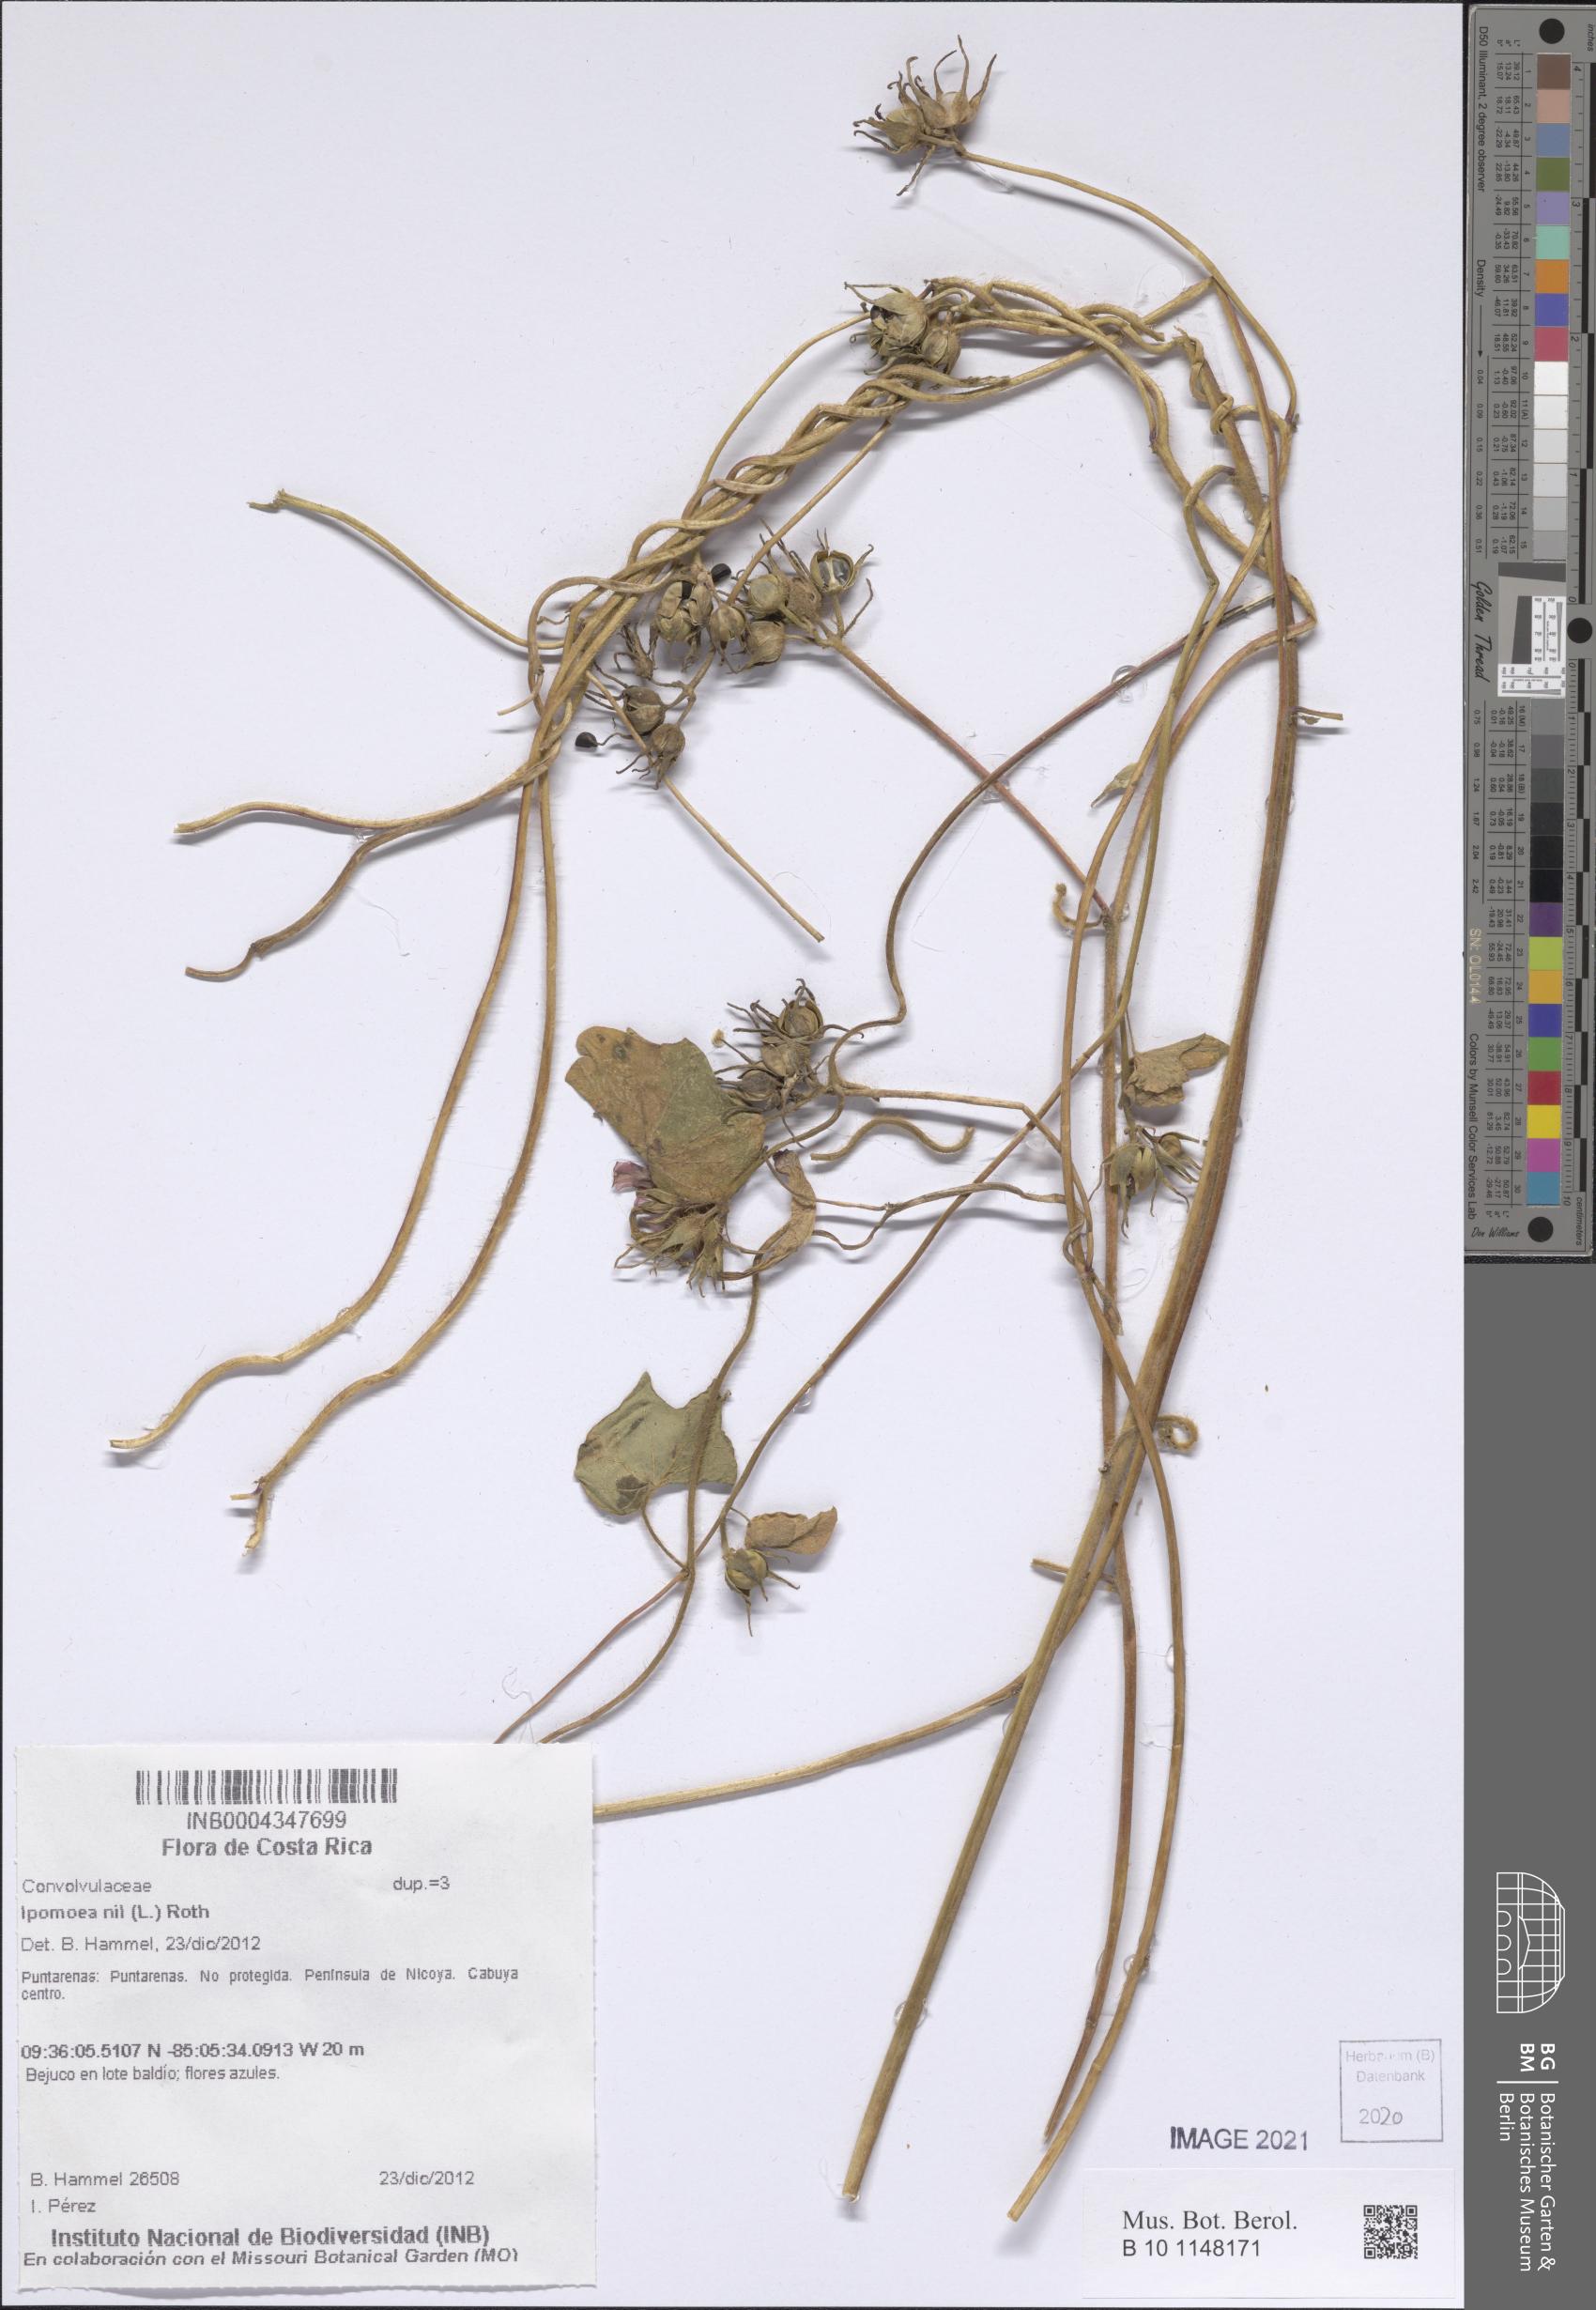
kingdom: Plantae
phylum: Tracheophyta
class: Magnoliopsida
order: Solanales
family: Convolvulaceae
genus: Ipomoea
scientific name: Ipomoea nil
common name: Japanese morning-glory
